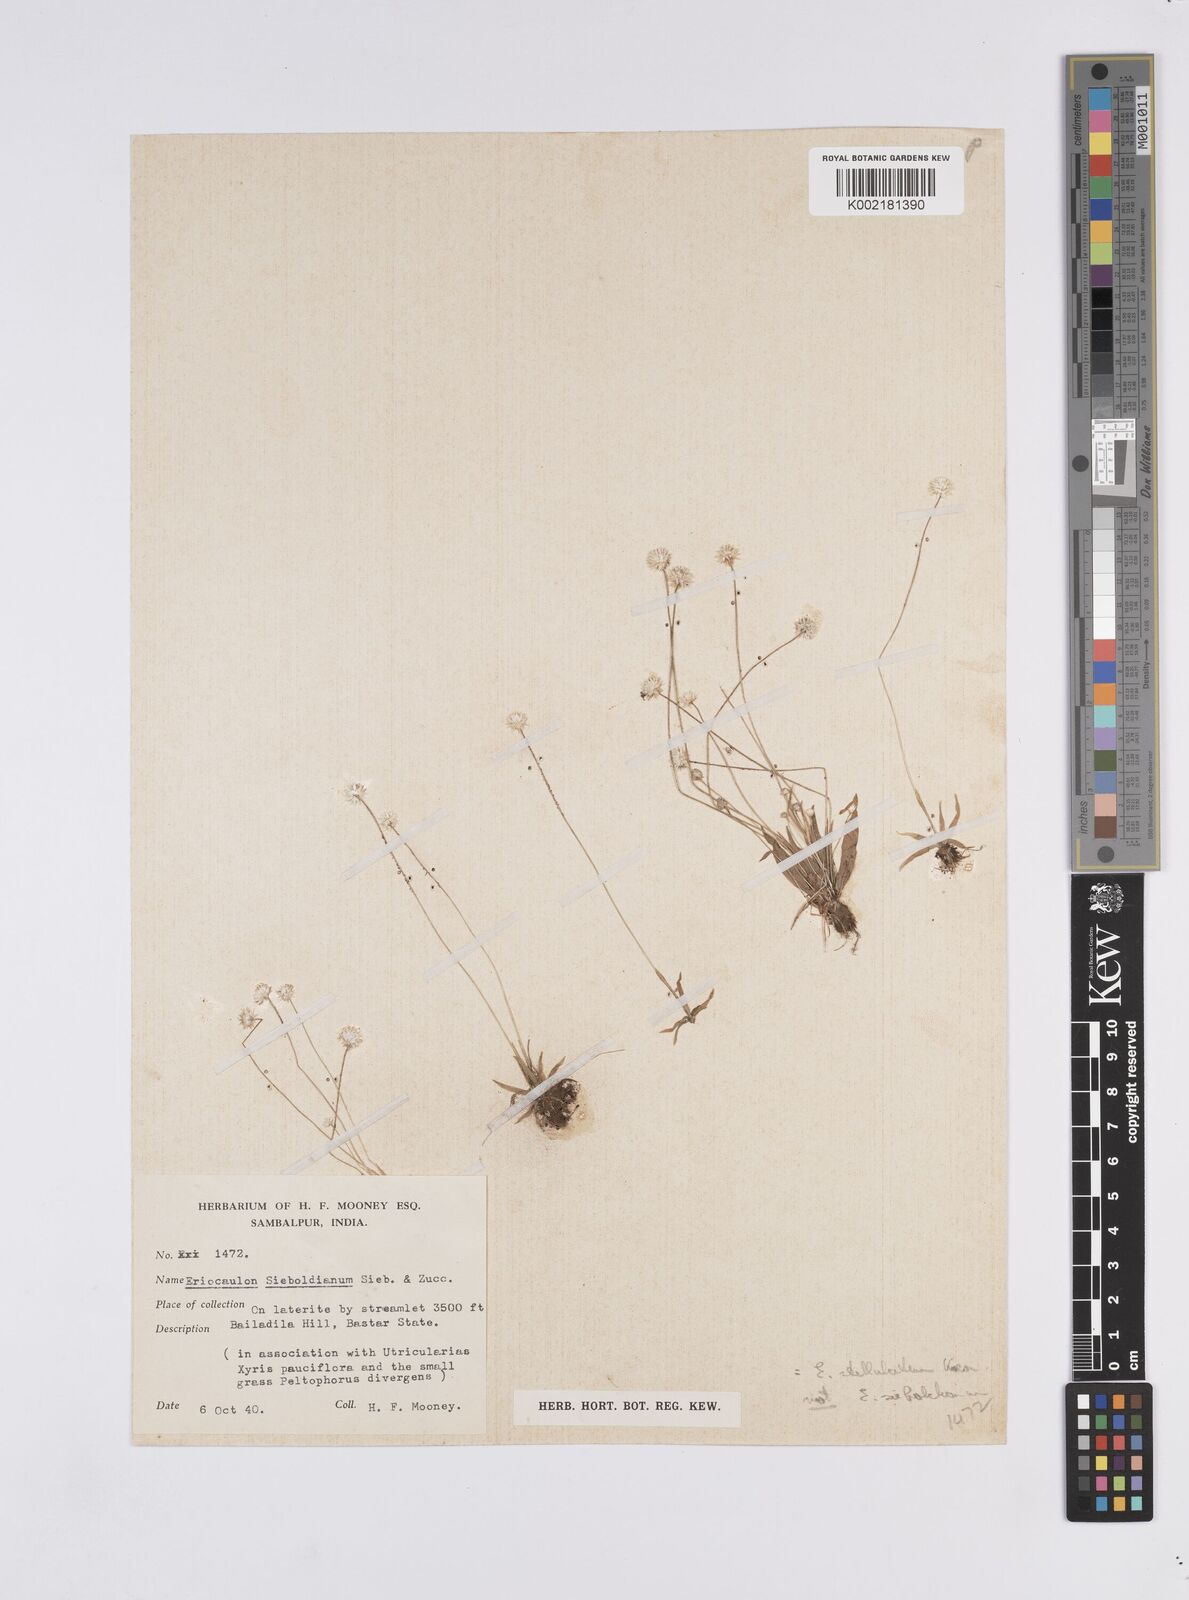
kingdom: Plantae
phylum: Tracheophyta
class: Liliopsida
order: Poales
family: Eriocaulaceae
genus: Eriocaulon
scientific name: Eriocaulon stellulatum
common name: Starry pipewort
